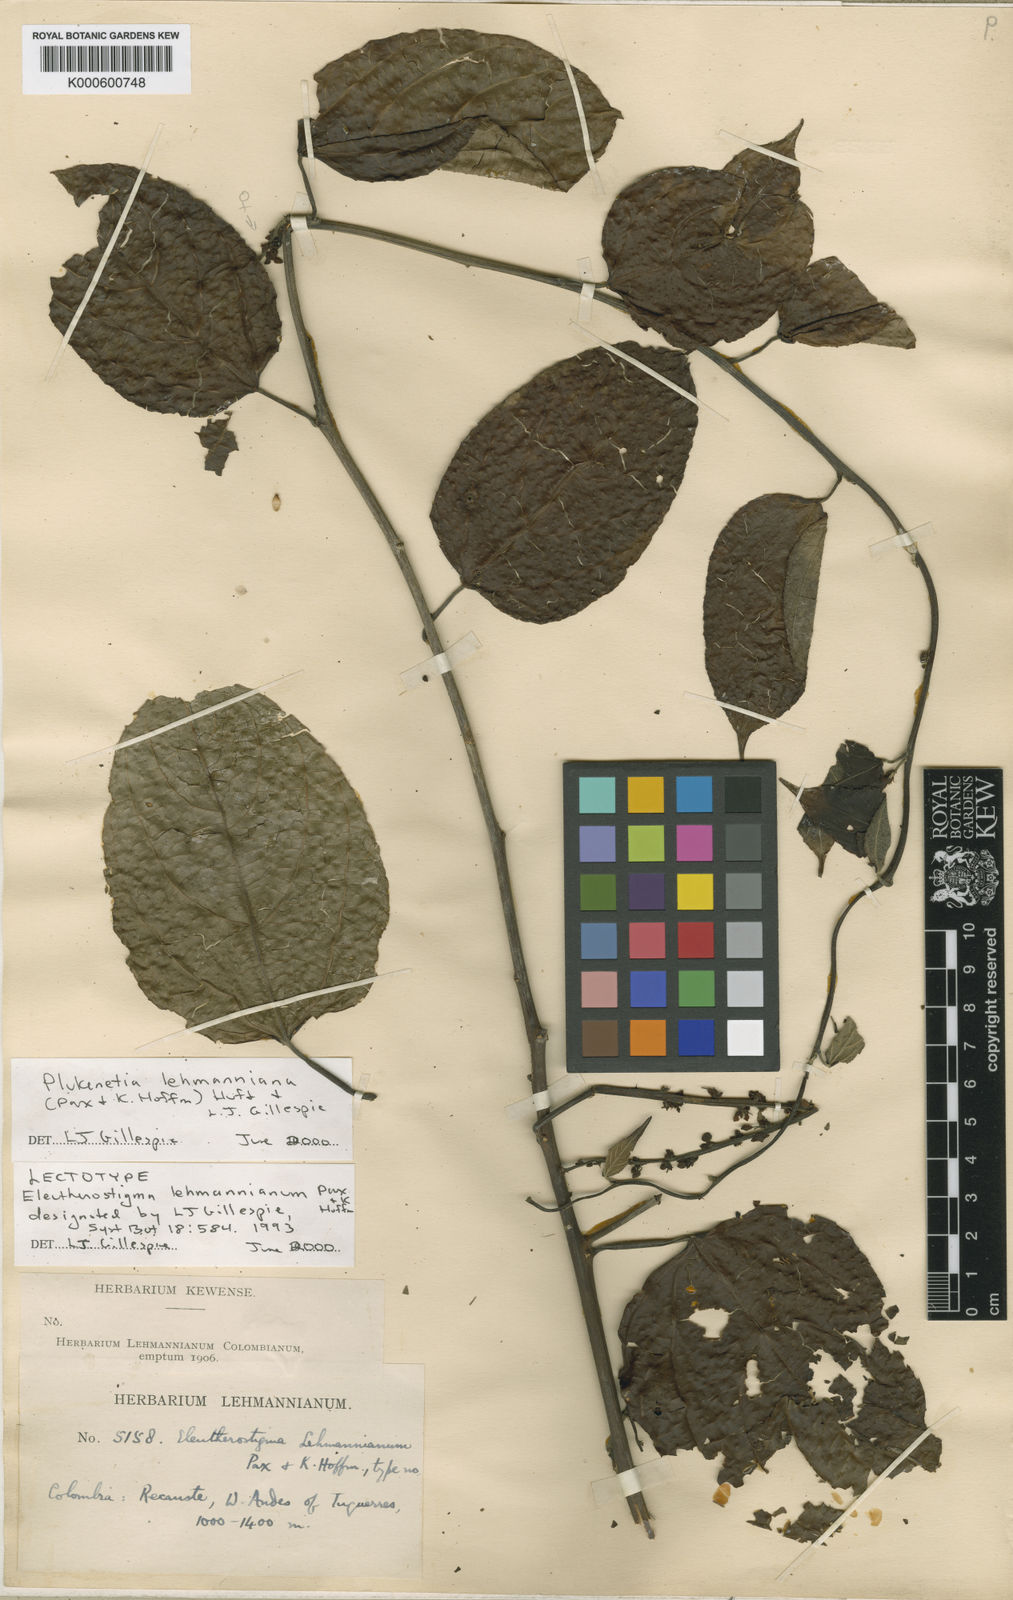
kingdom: Plantae
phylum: Tracheophyta
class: Magnoliopsida
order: Malpighiales
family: Euphorbiaceae
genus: Plukenetia
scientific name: Plukenetia lehmanniana
